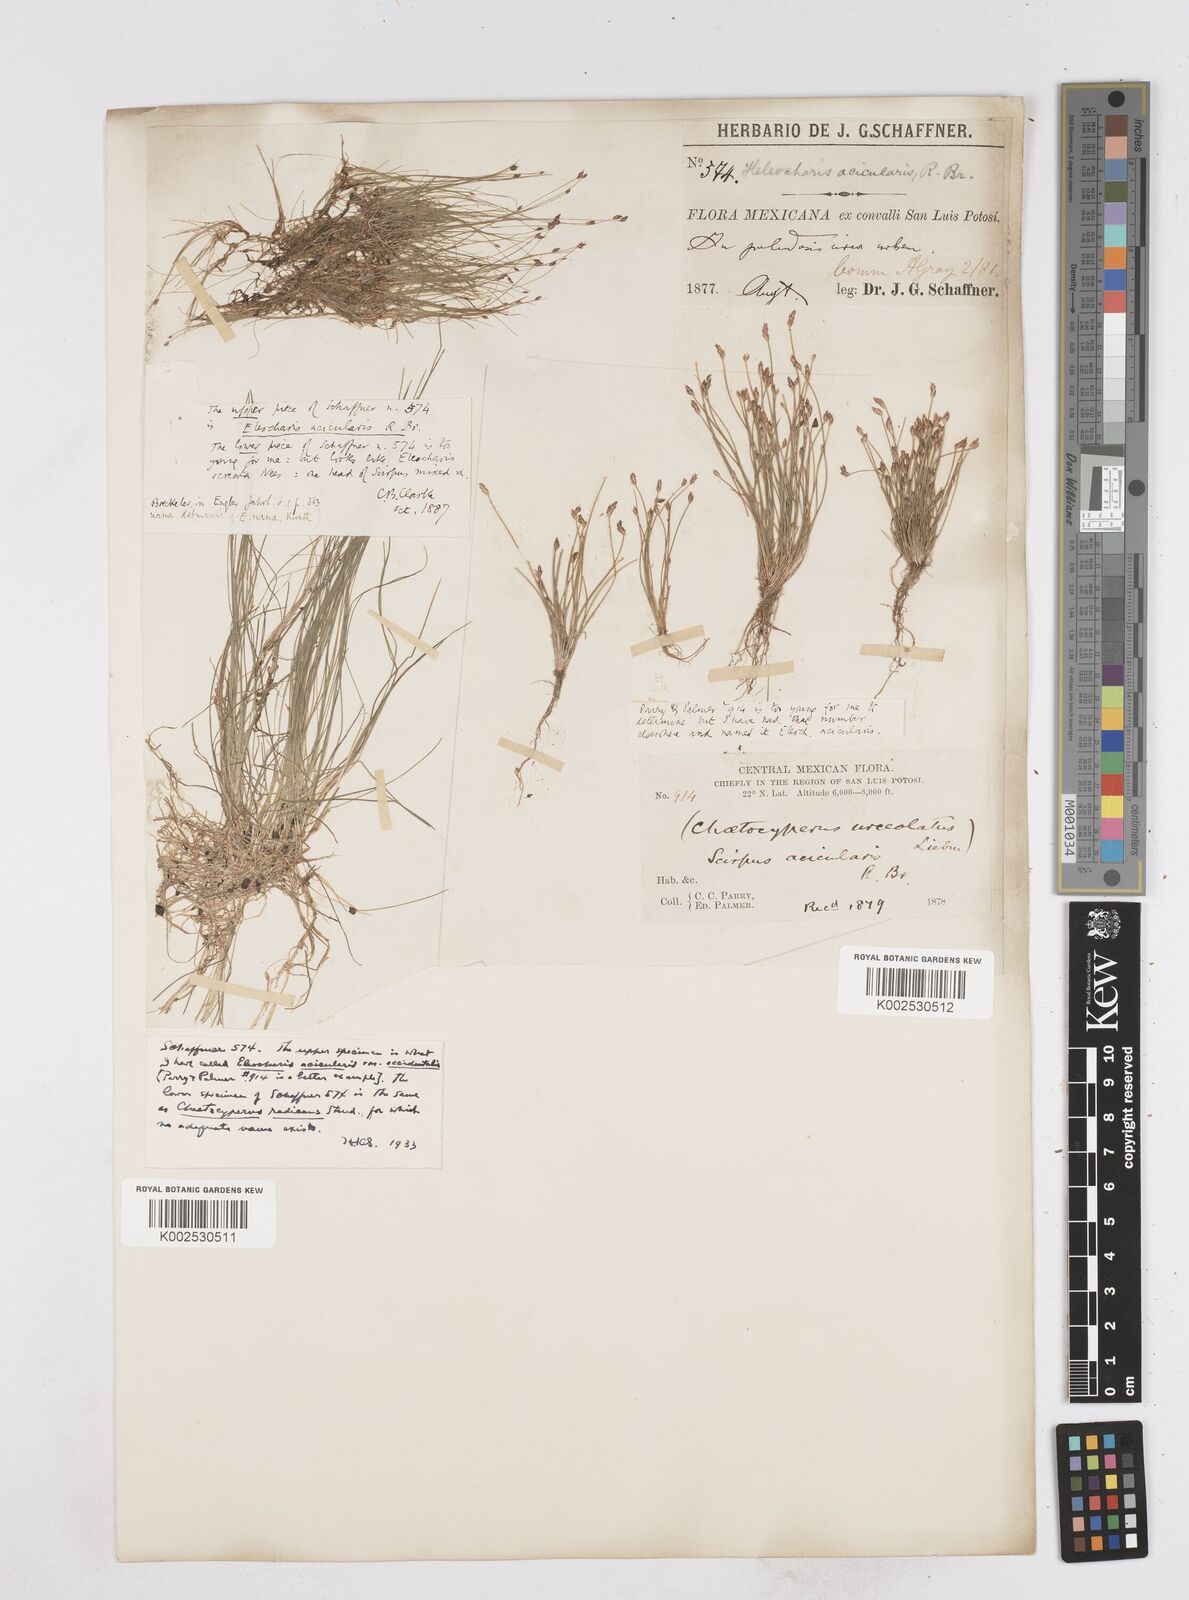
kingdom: Plantae
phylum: Tracheophyta
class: Liliopsida
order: Poales
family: Cyperaceae
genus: Eleocharis
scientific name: Eleocharis acicularis
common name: Needle spike-rush
